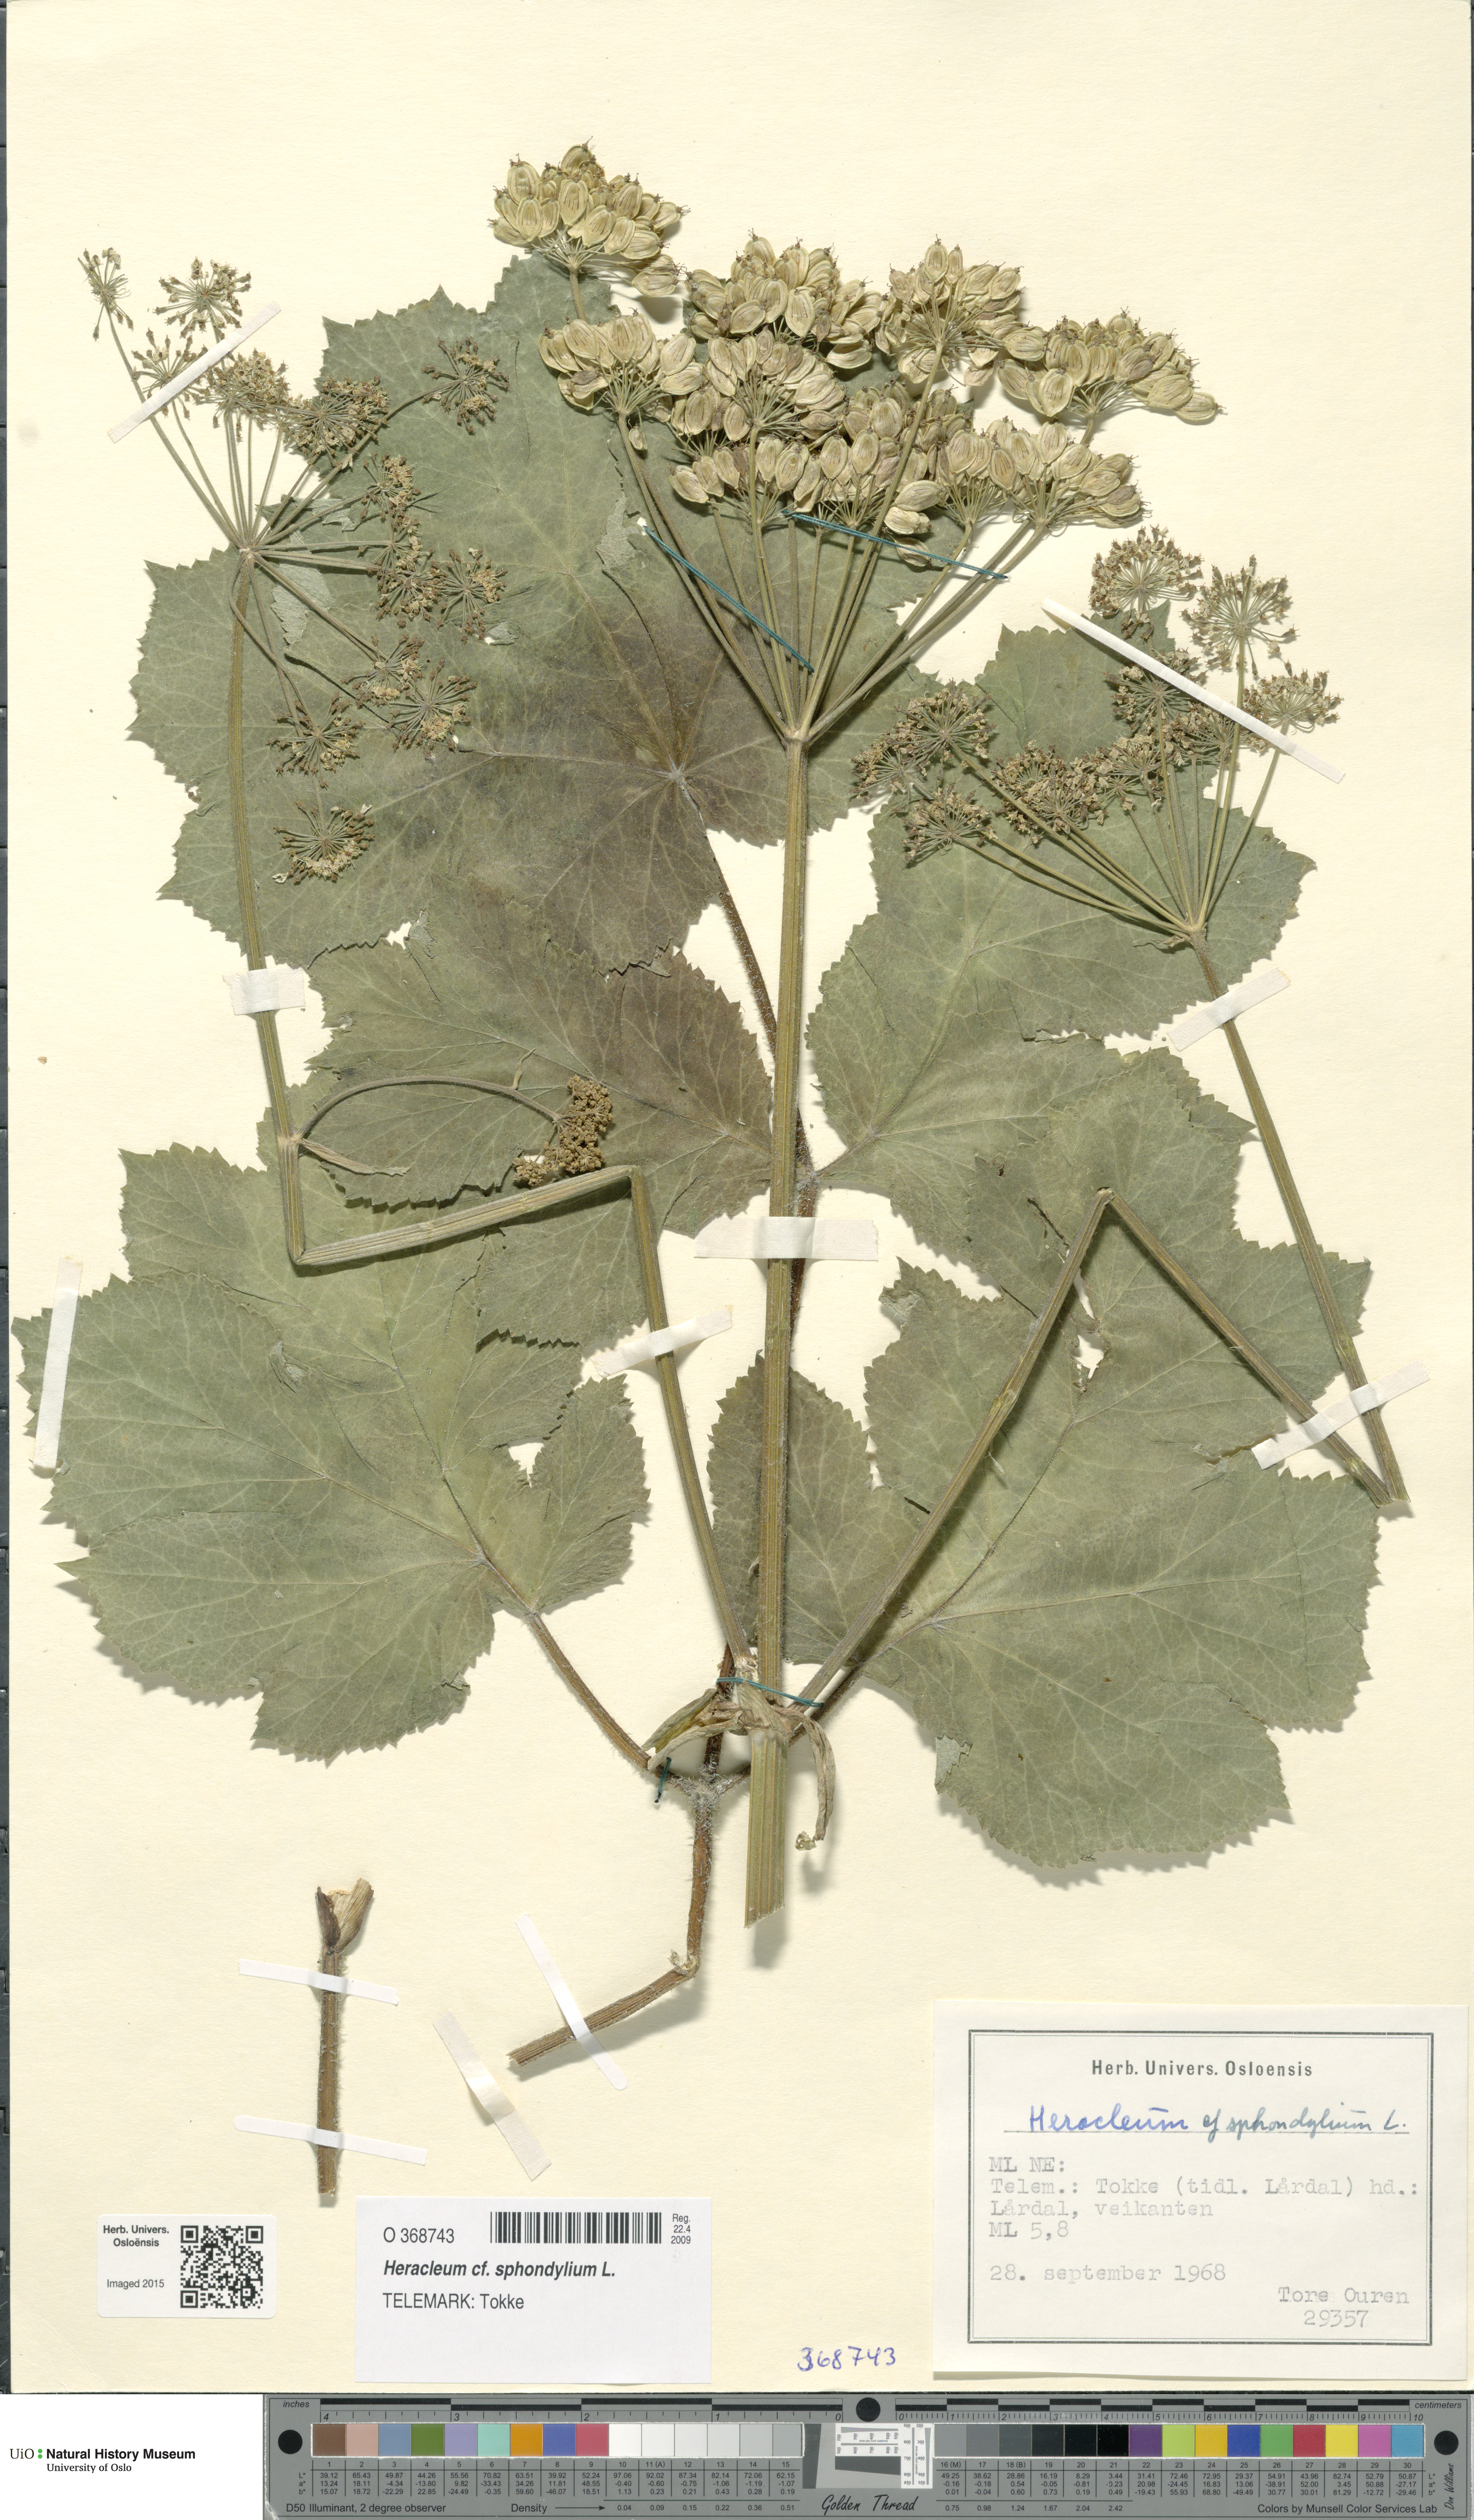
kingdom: Plantae
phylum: Tracheophyta
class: Magnoliopsida
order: Apiales
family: Apiaceae
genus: Heracleum
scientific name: Heracleum sphondylium
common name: Hogweed
